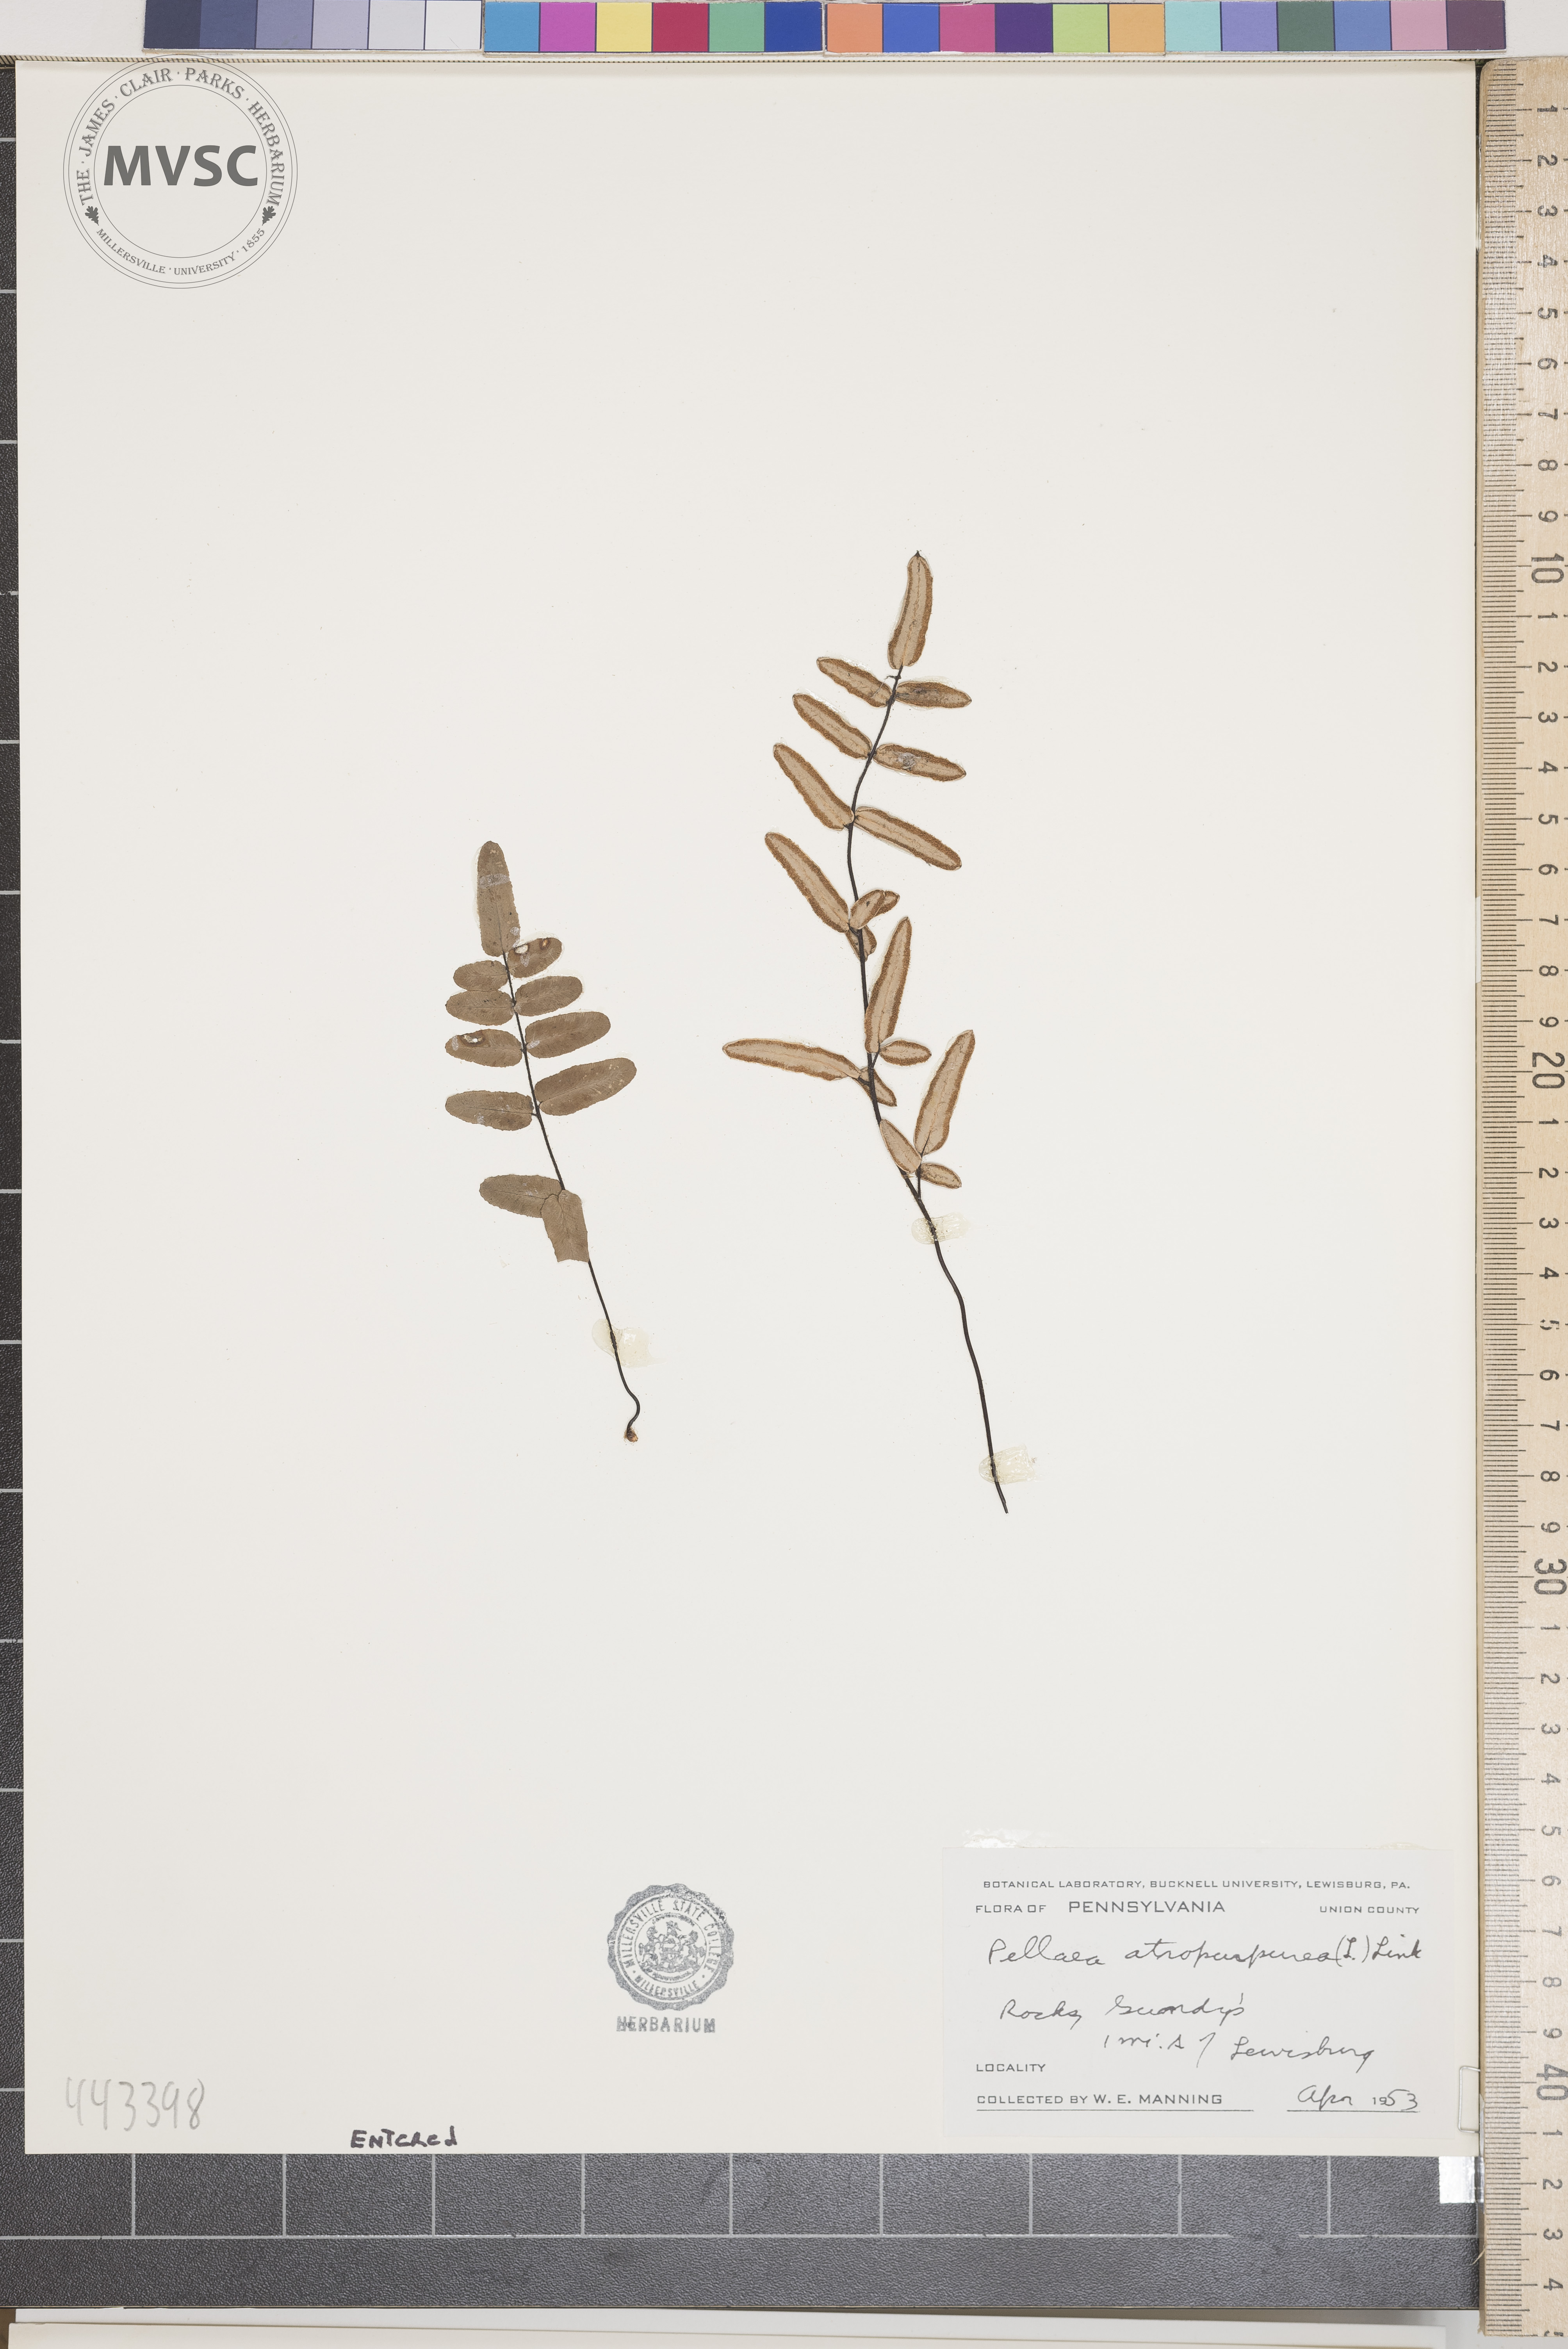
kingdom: Plantae
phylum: Tracheophyta
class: Polypodiopsida
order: Polypodiales
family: Pteridaceae
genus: Pellaea
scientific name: Pellaea atropurpurea
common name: Hairy cliffbrake
